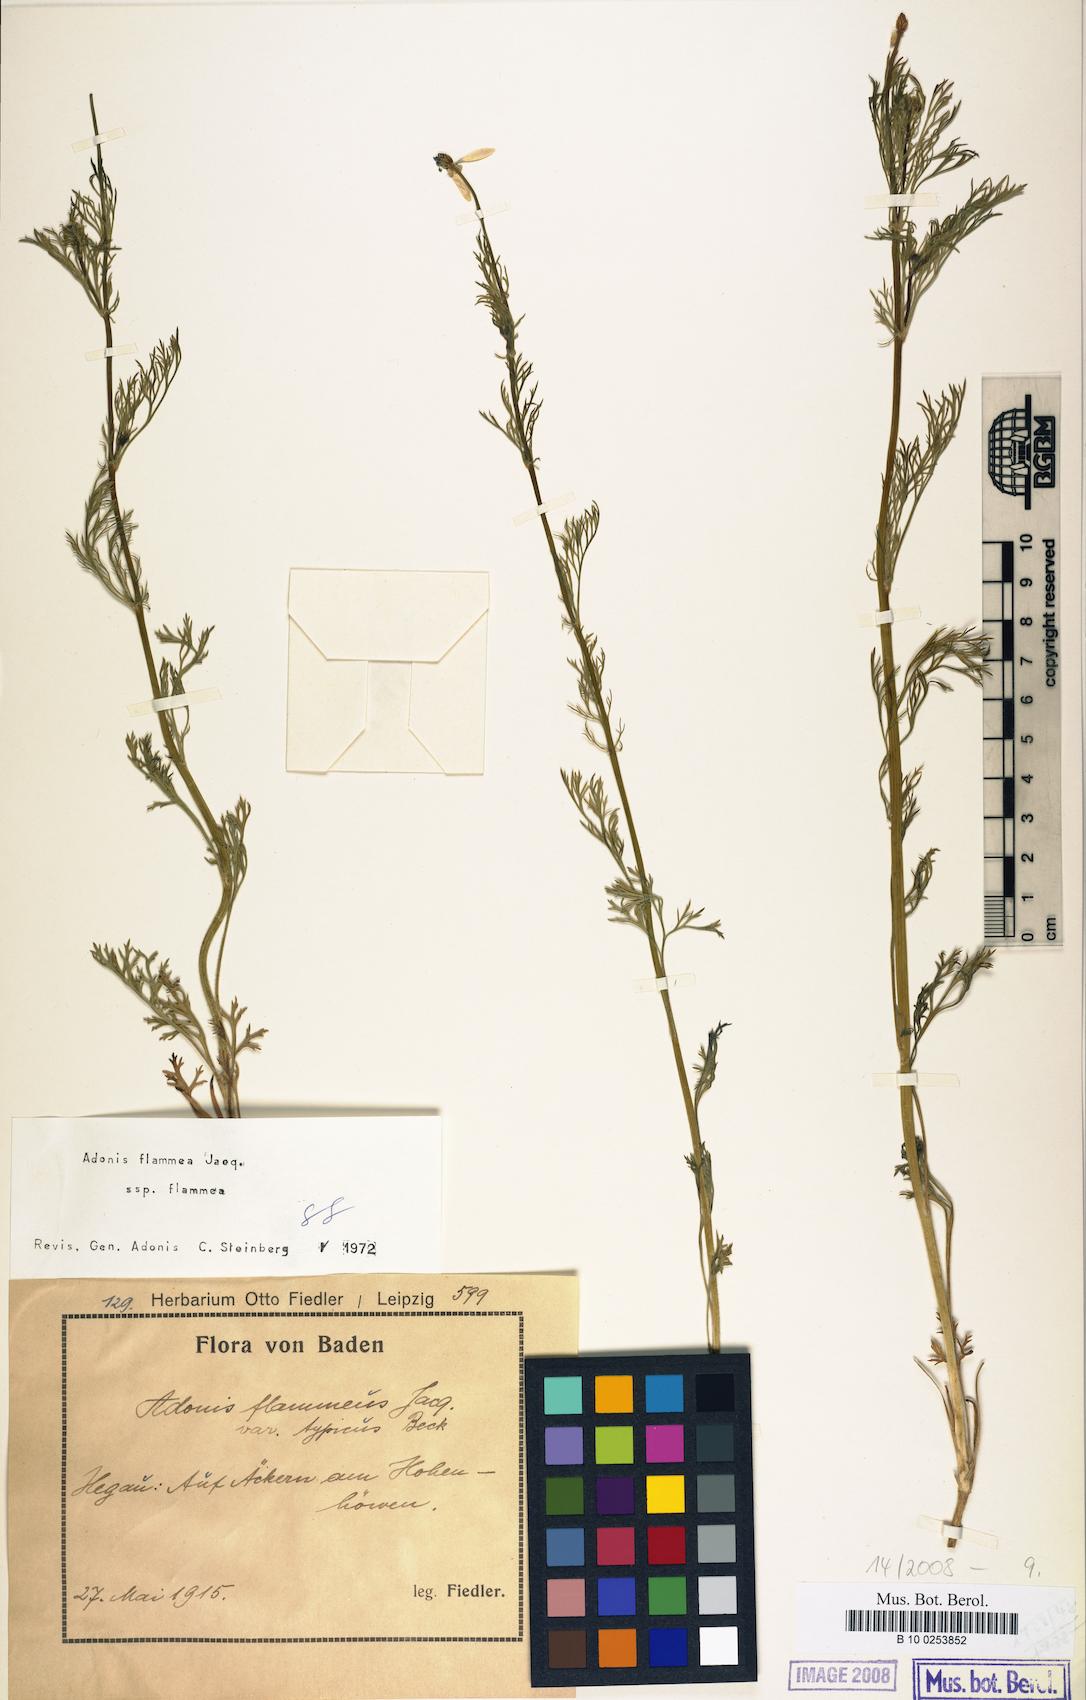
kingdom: Plantae
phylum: Tracheophyta
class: Magnoliopsida
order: Ranunculales
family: Ranunculaceae
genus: Adonis
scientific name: Adonis flammea
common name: Large pheasant's-eye
